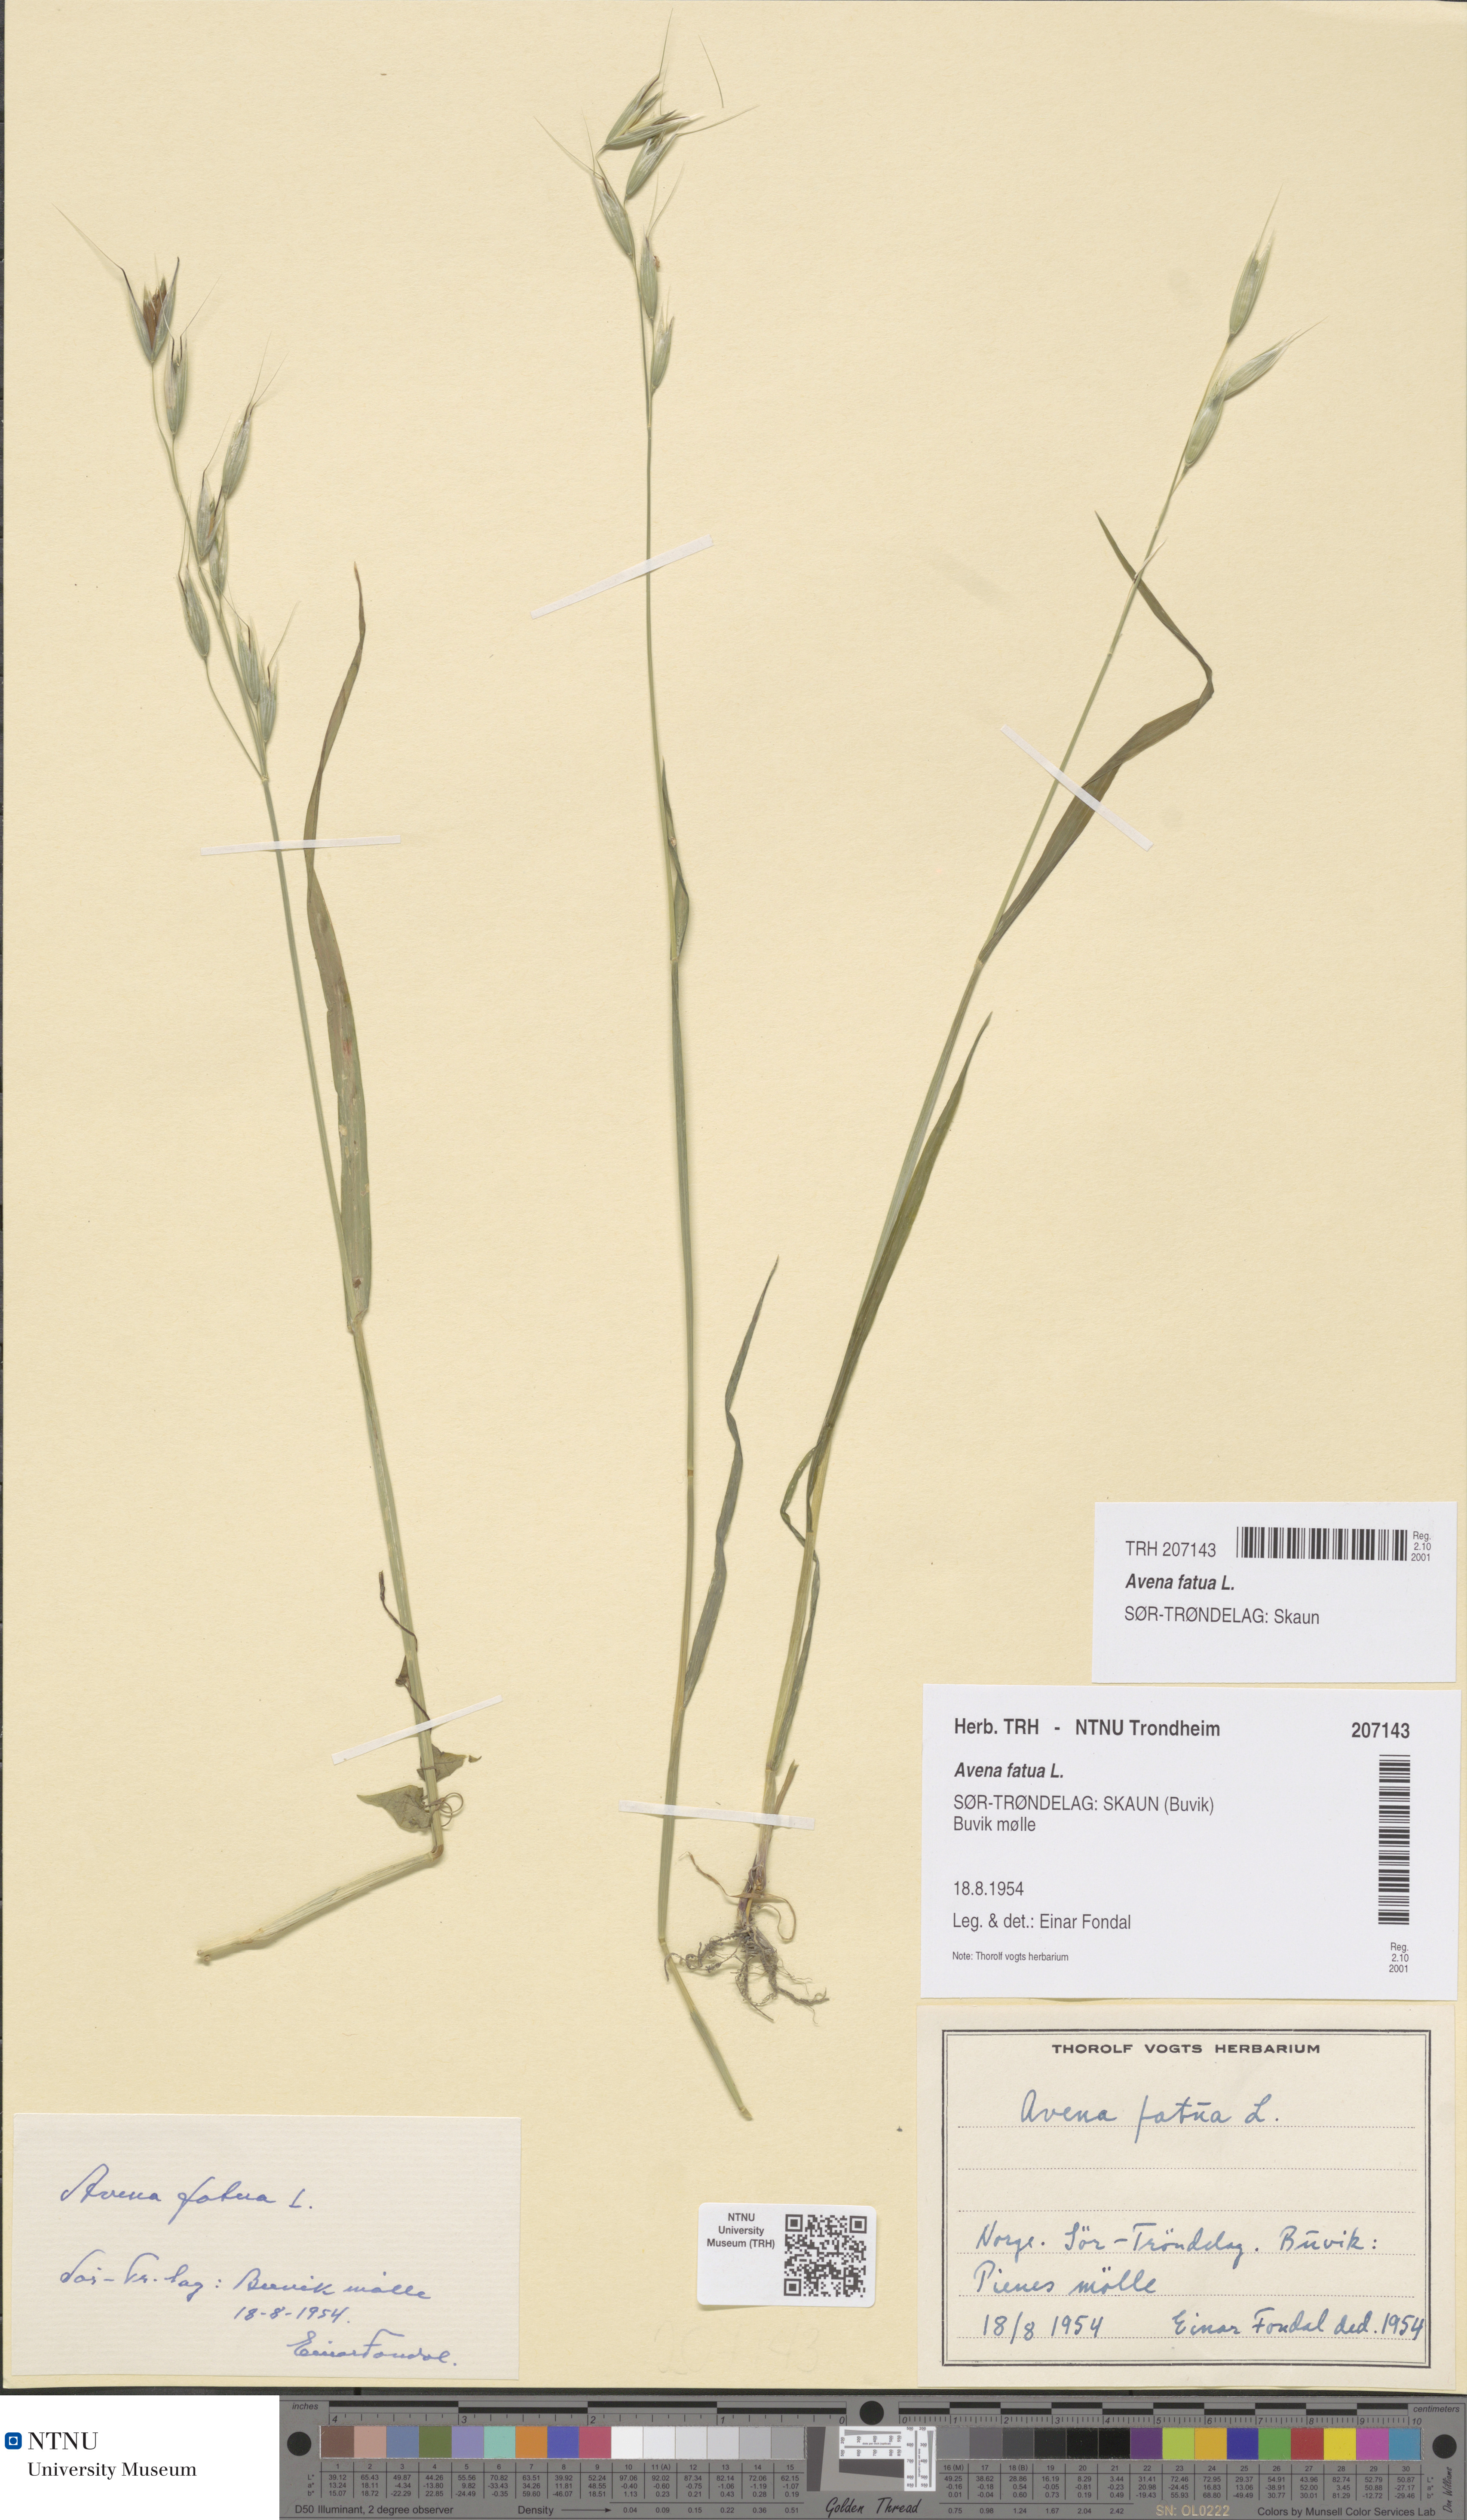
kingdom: Plantae
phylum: Tracheophyta
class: Liliopsida
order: Poales
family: Poaceae
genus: Avena
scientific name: Avena fatua
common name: Wild oat
